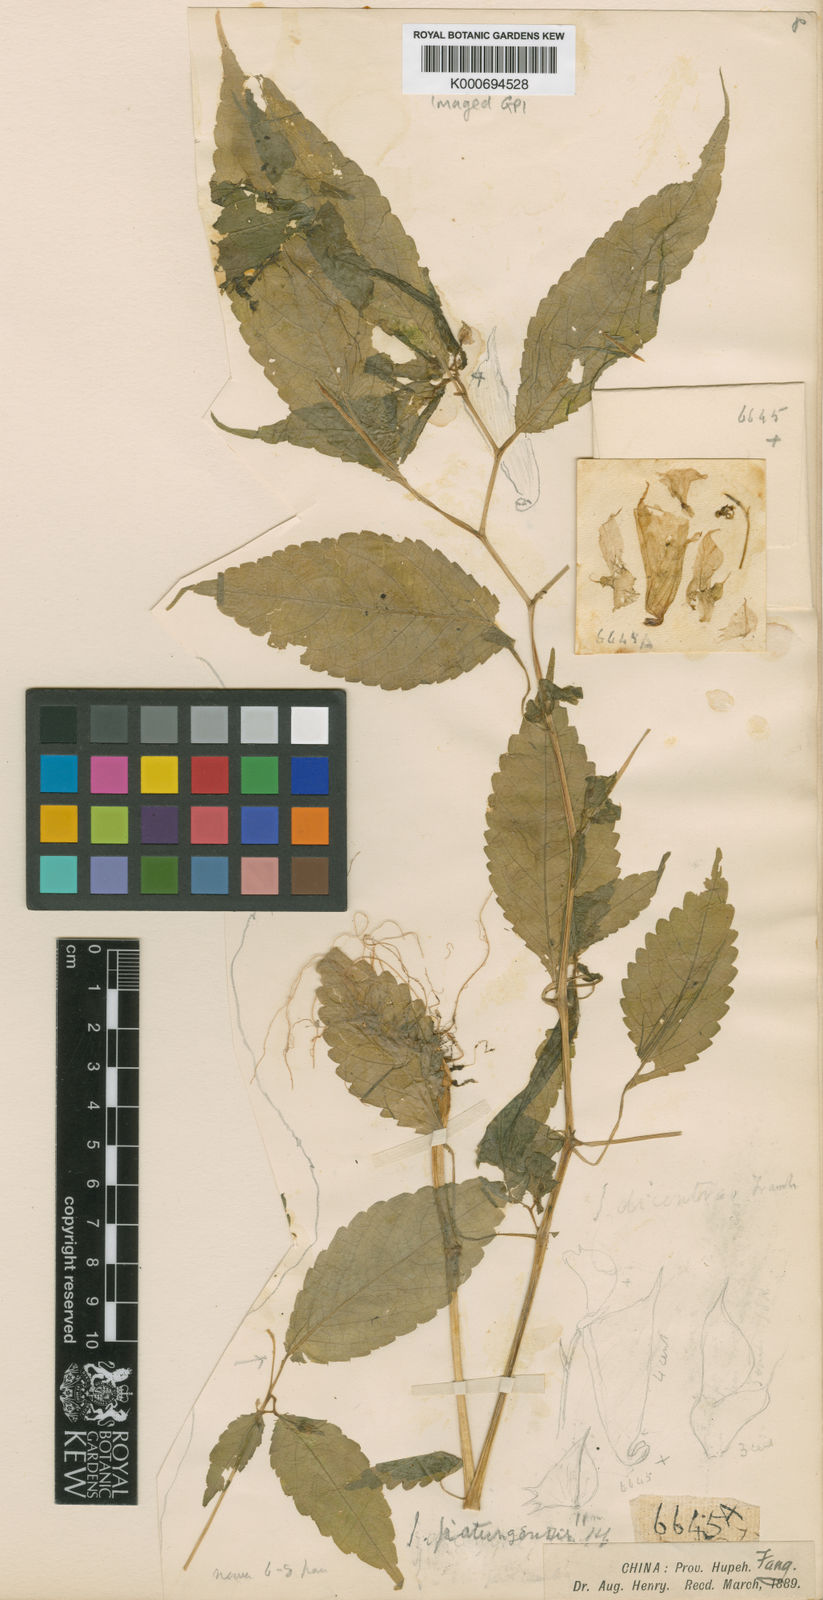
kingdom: Plantae
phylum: Tracheophyta
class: Magnoliopsida
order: Ericales
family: Balsaminaceae
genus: Impatiens
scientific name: Impatiens
